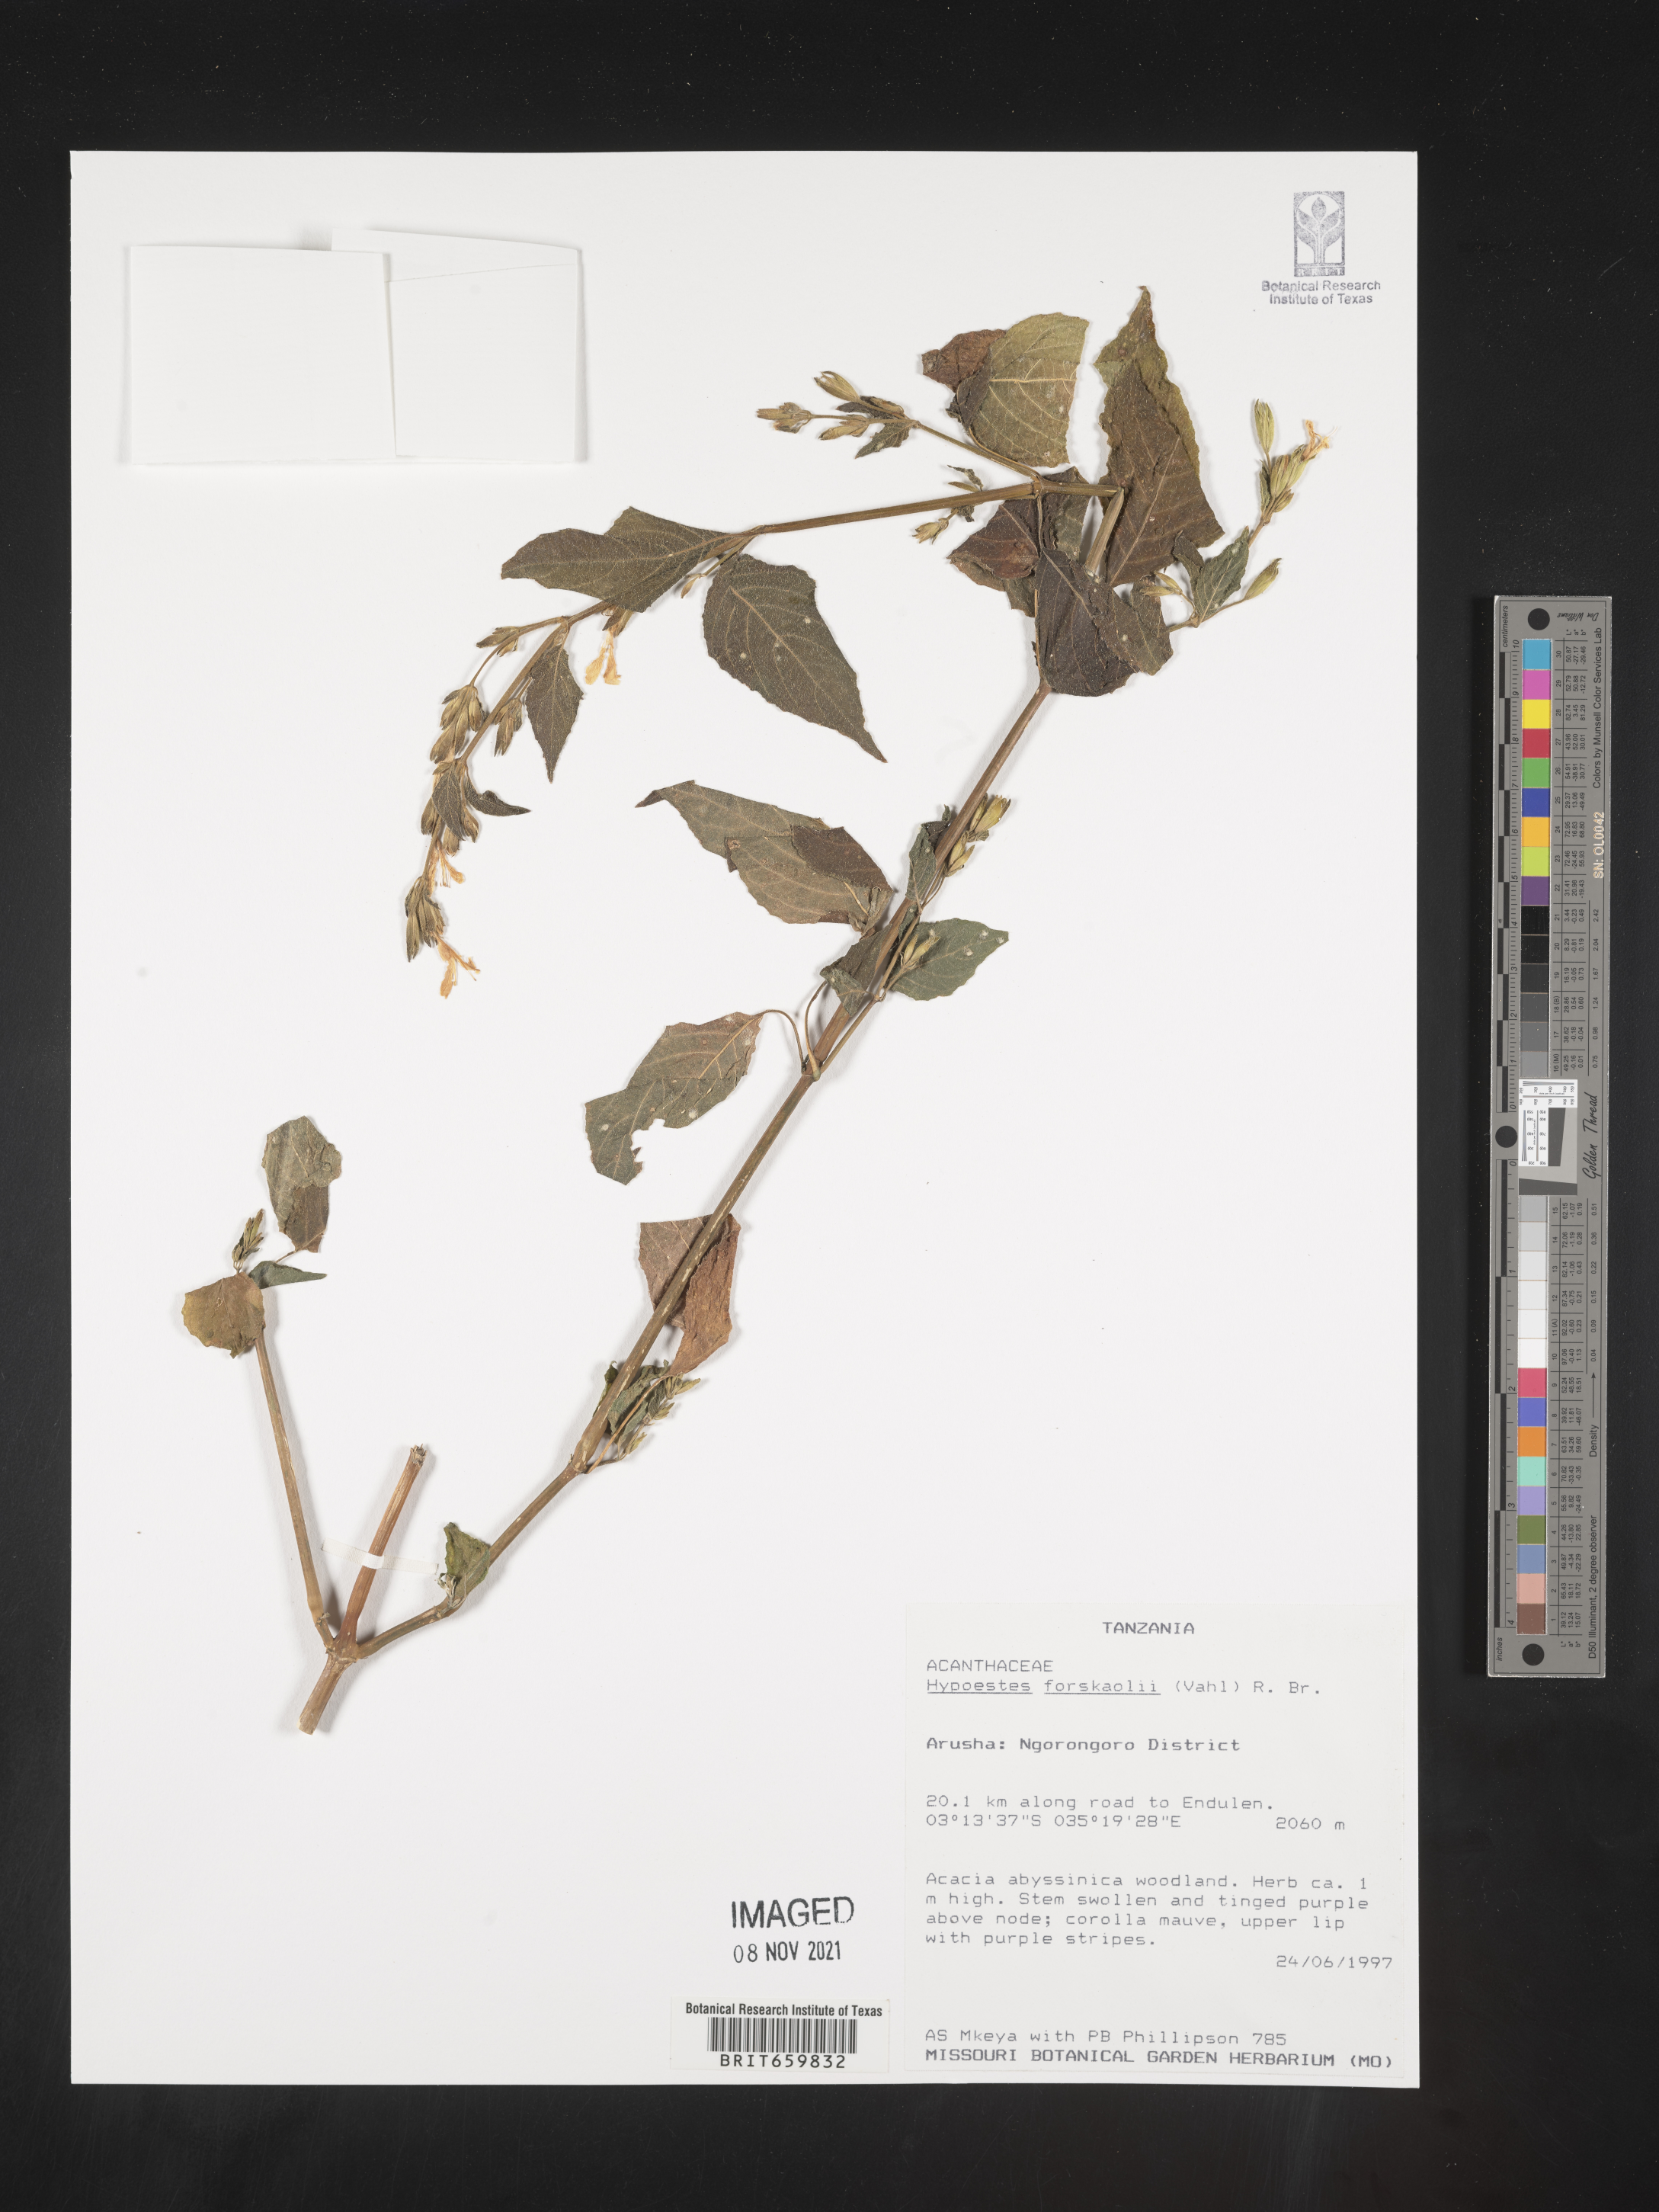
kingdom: Plantae
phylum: Tracheophyta
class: Magnoliopsida
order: Lamiales
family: Acanthaceae
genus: Hypoestes
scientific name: Hypoestes forskaolii
